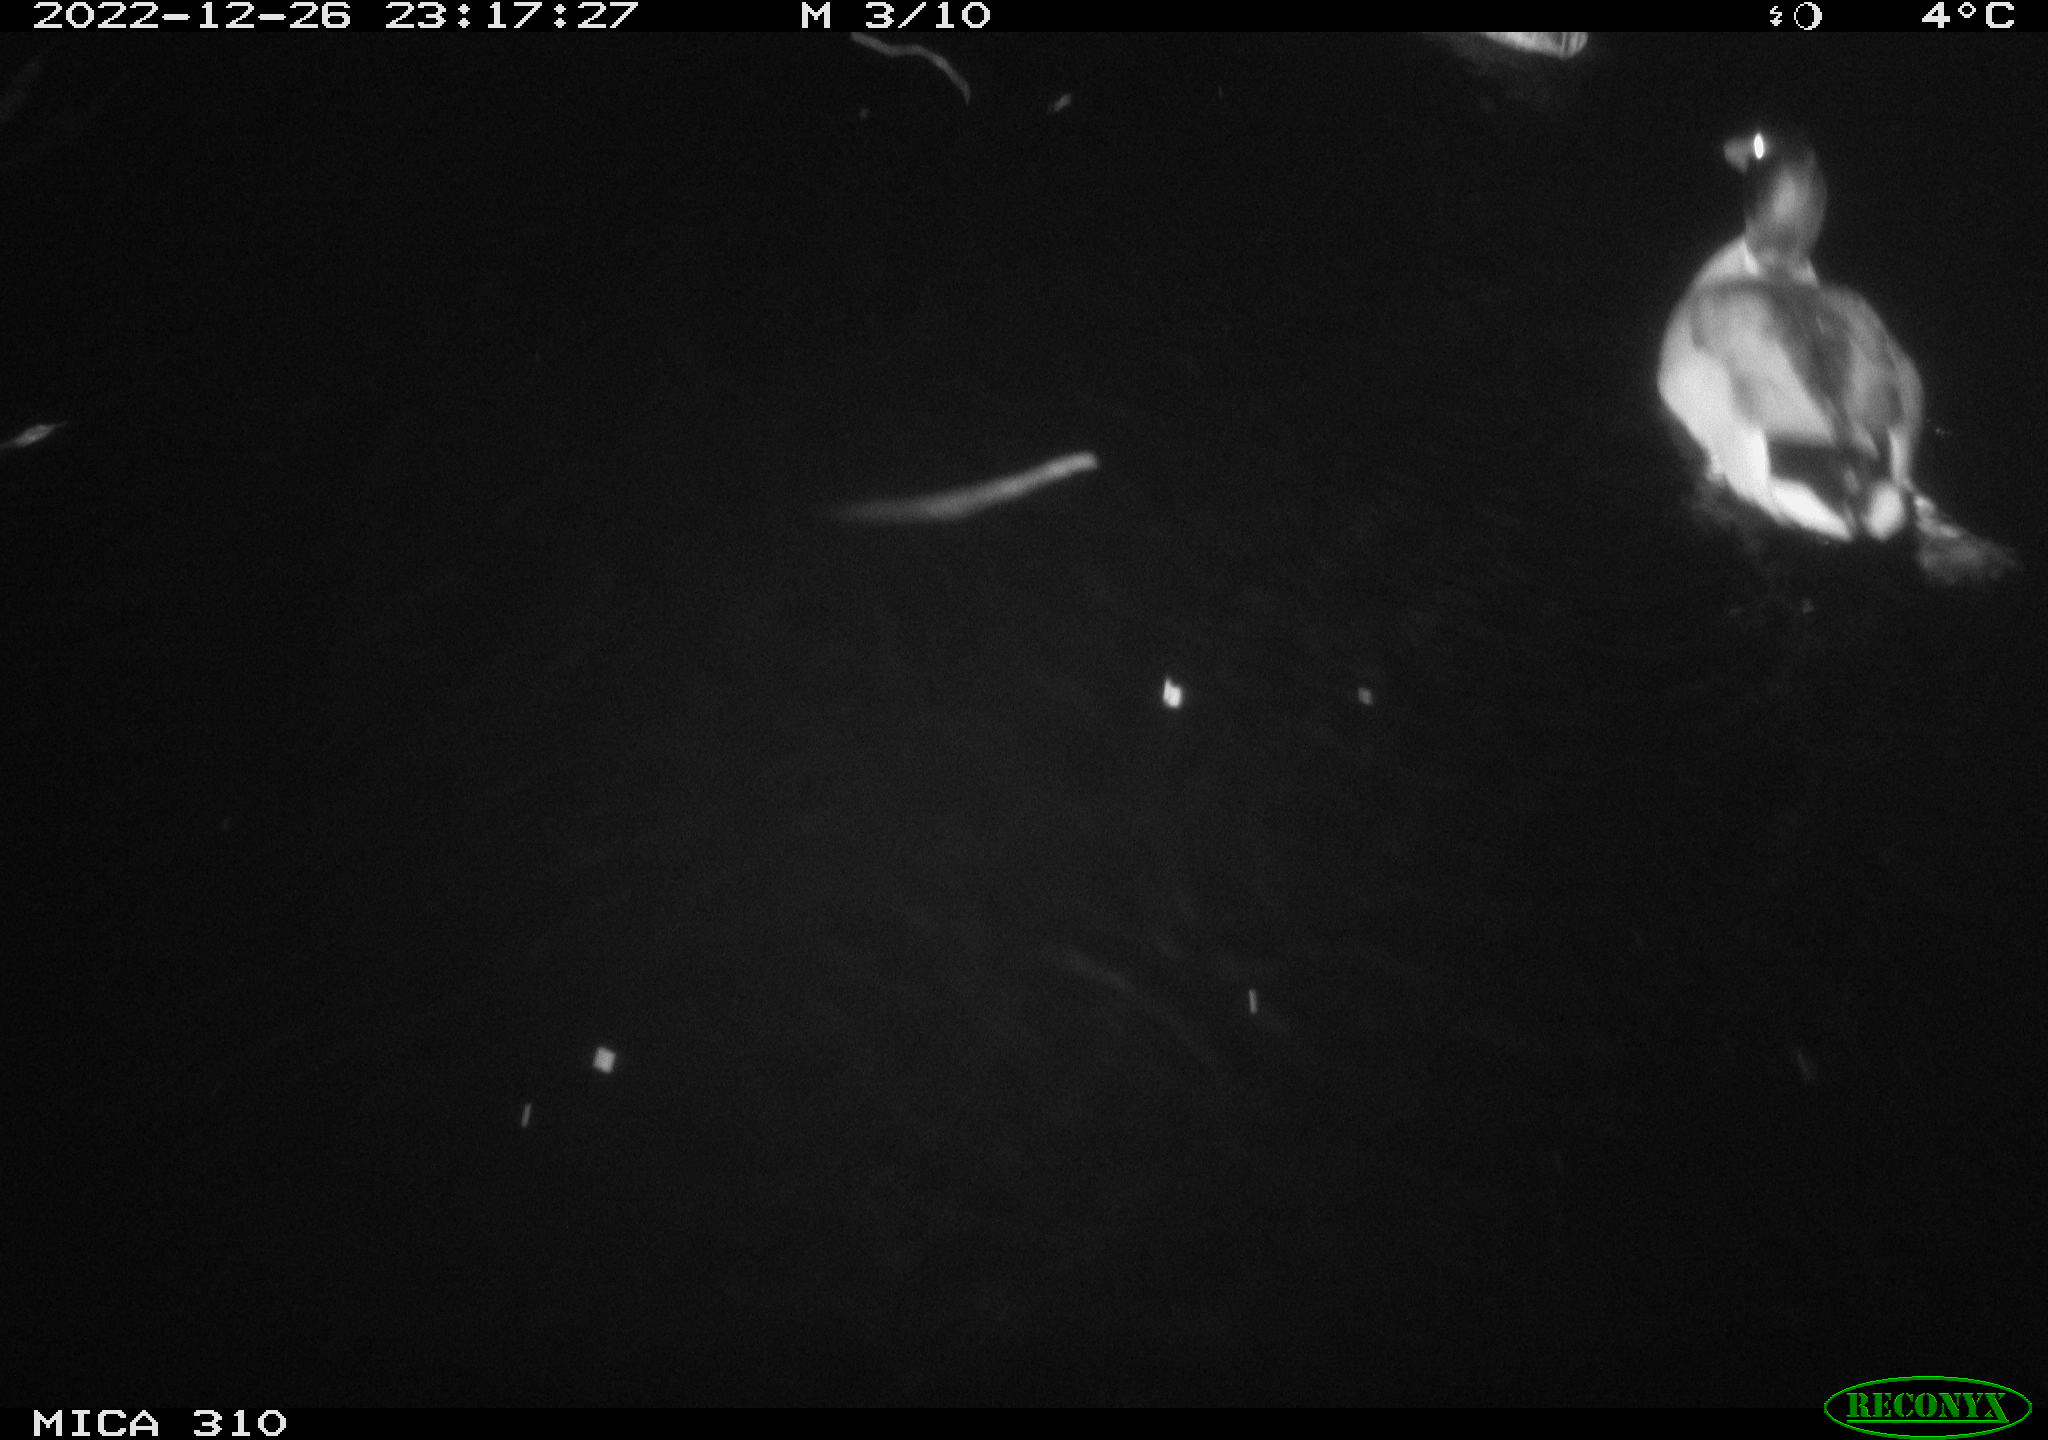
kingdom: Animalia
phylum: Chordata
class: Aves
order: Anseriformes
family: Anatidae
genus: Anas
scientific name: Anas
